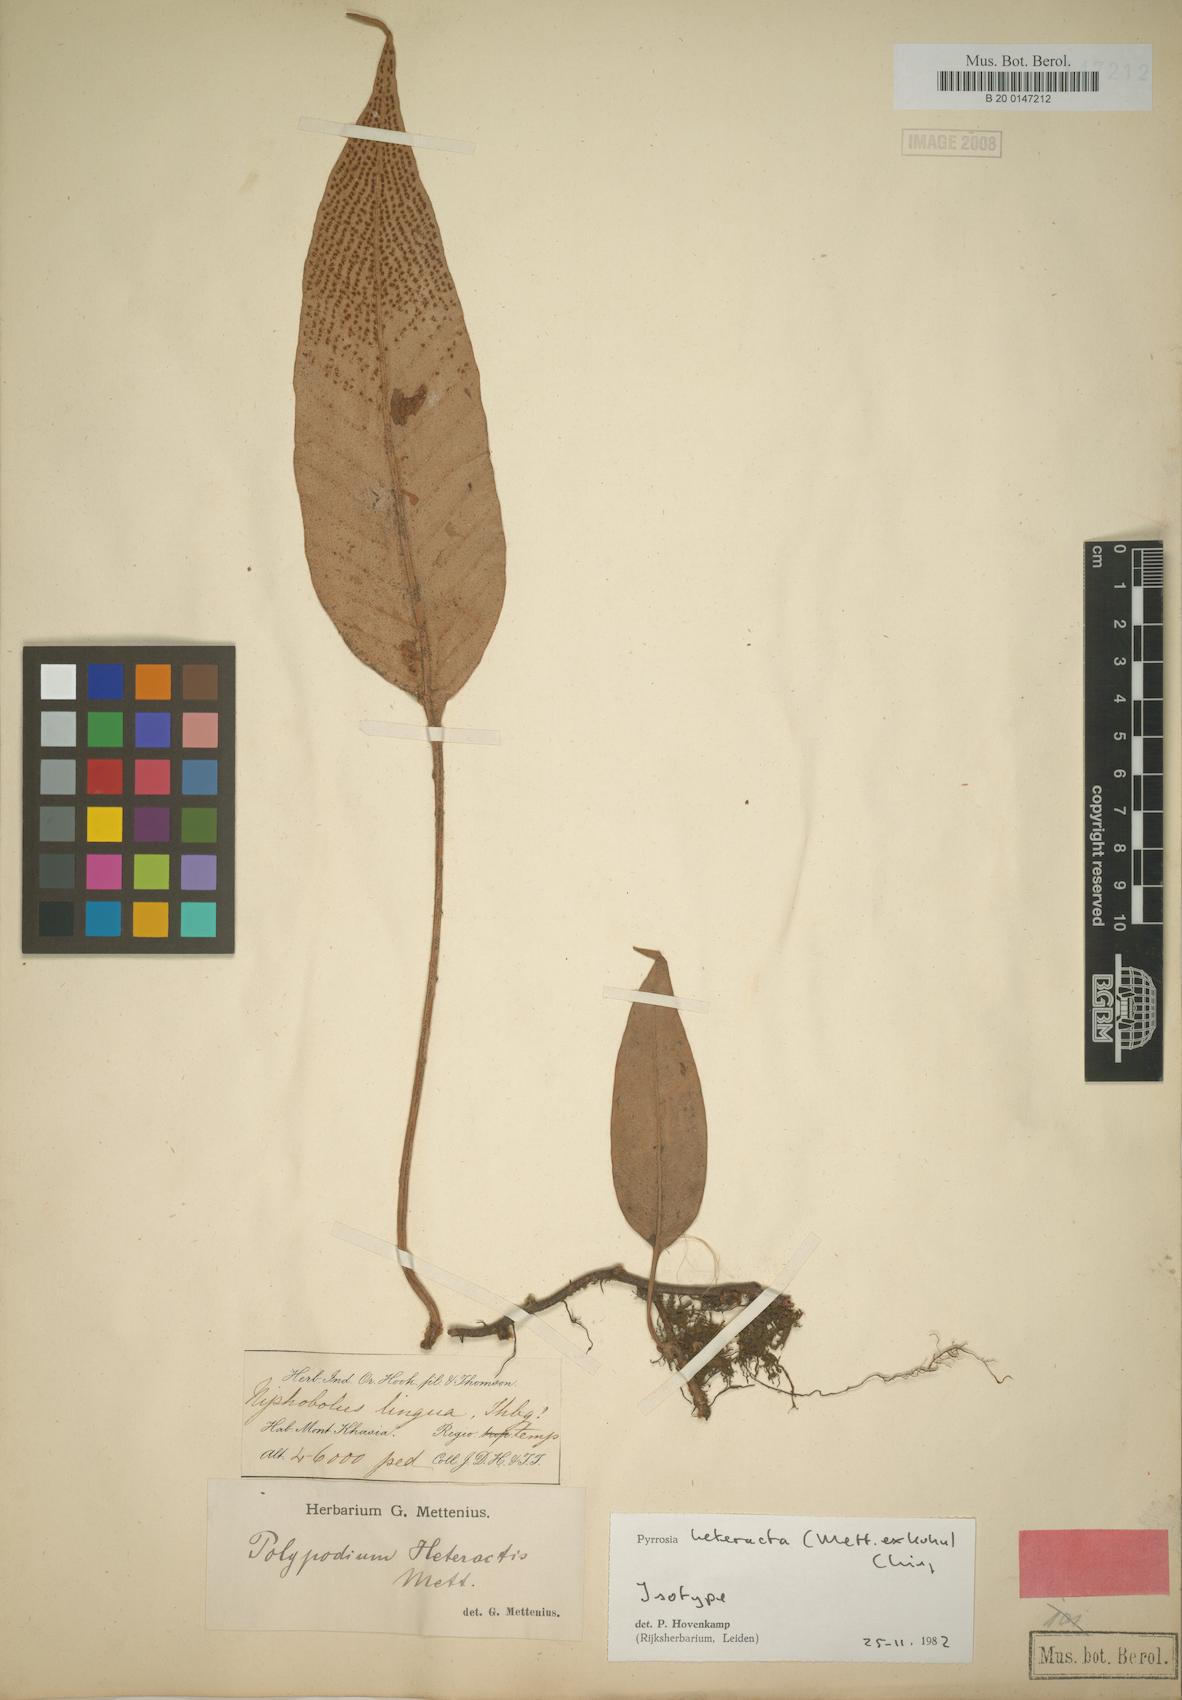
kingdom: Plantae
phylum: Tracheophyta
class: Polypodiopsida
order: Polypodiales
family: Polypodiaceae
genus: Pyrrosia
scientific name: Pyrrosia heteractis
